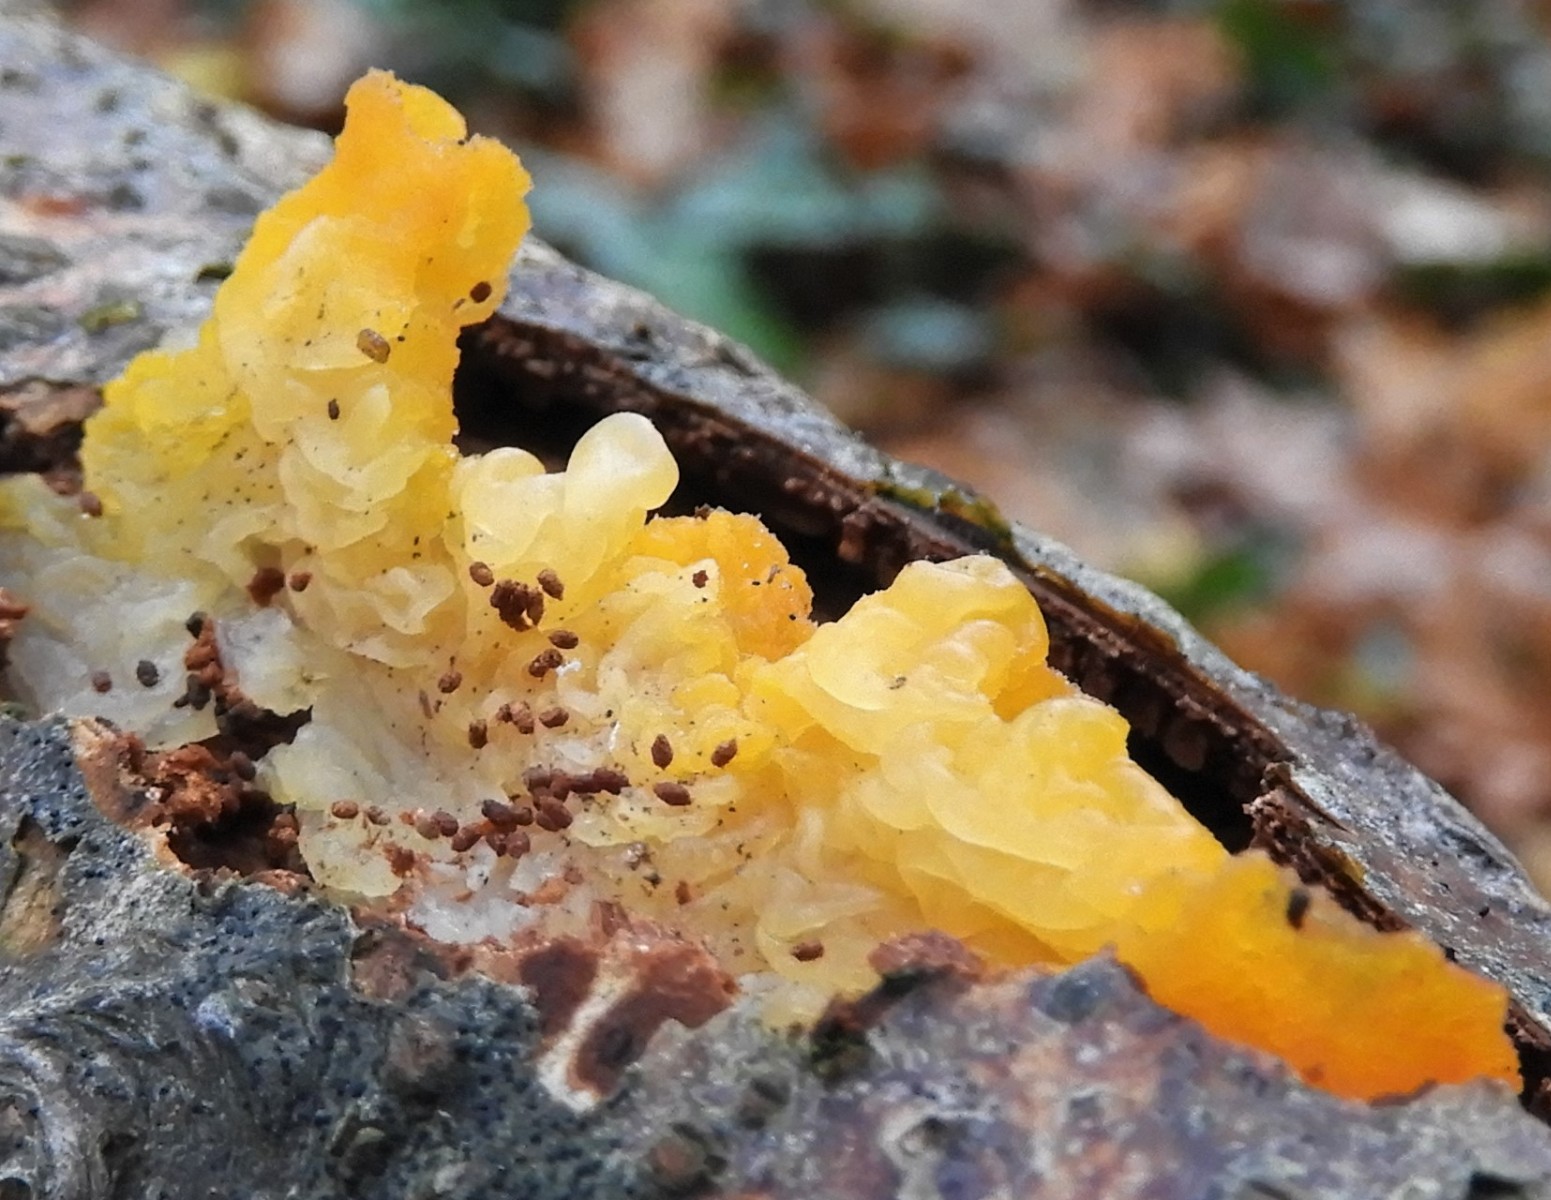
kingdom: Fungi
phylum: Basidiomycota
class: Tremellomycetes
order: Tremellales
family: Tremellaceae
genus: Tremella
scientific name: Tremella mesenterica
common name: gul bævresvamp
